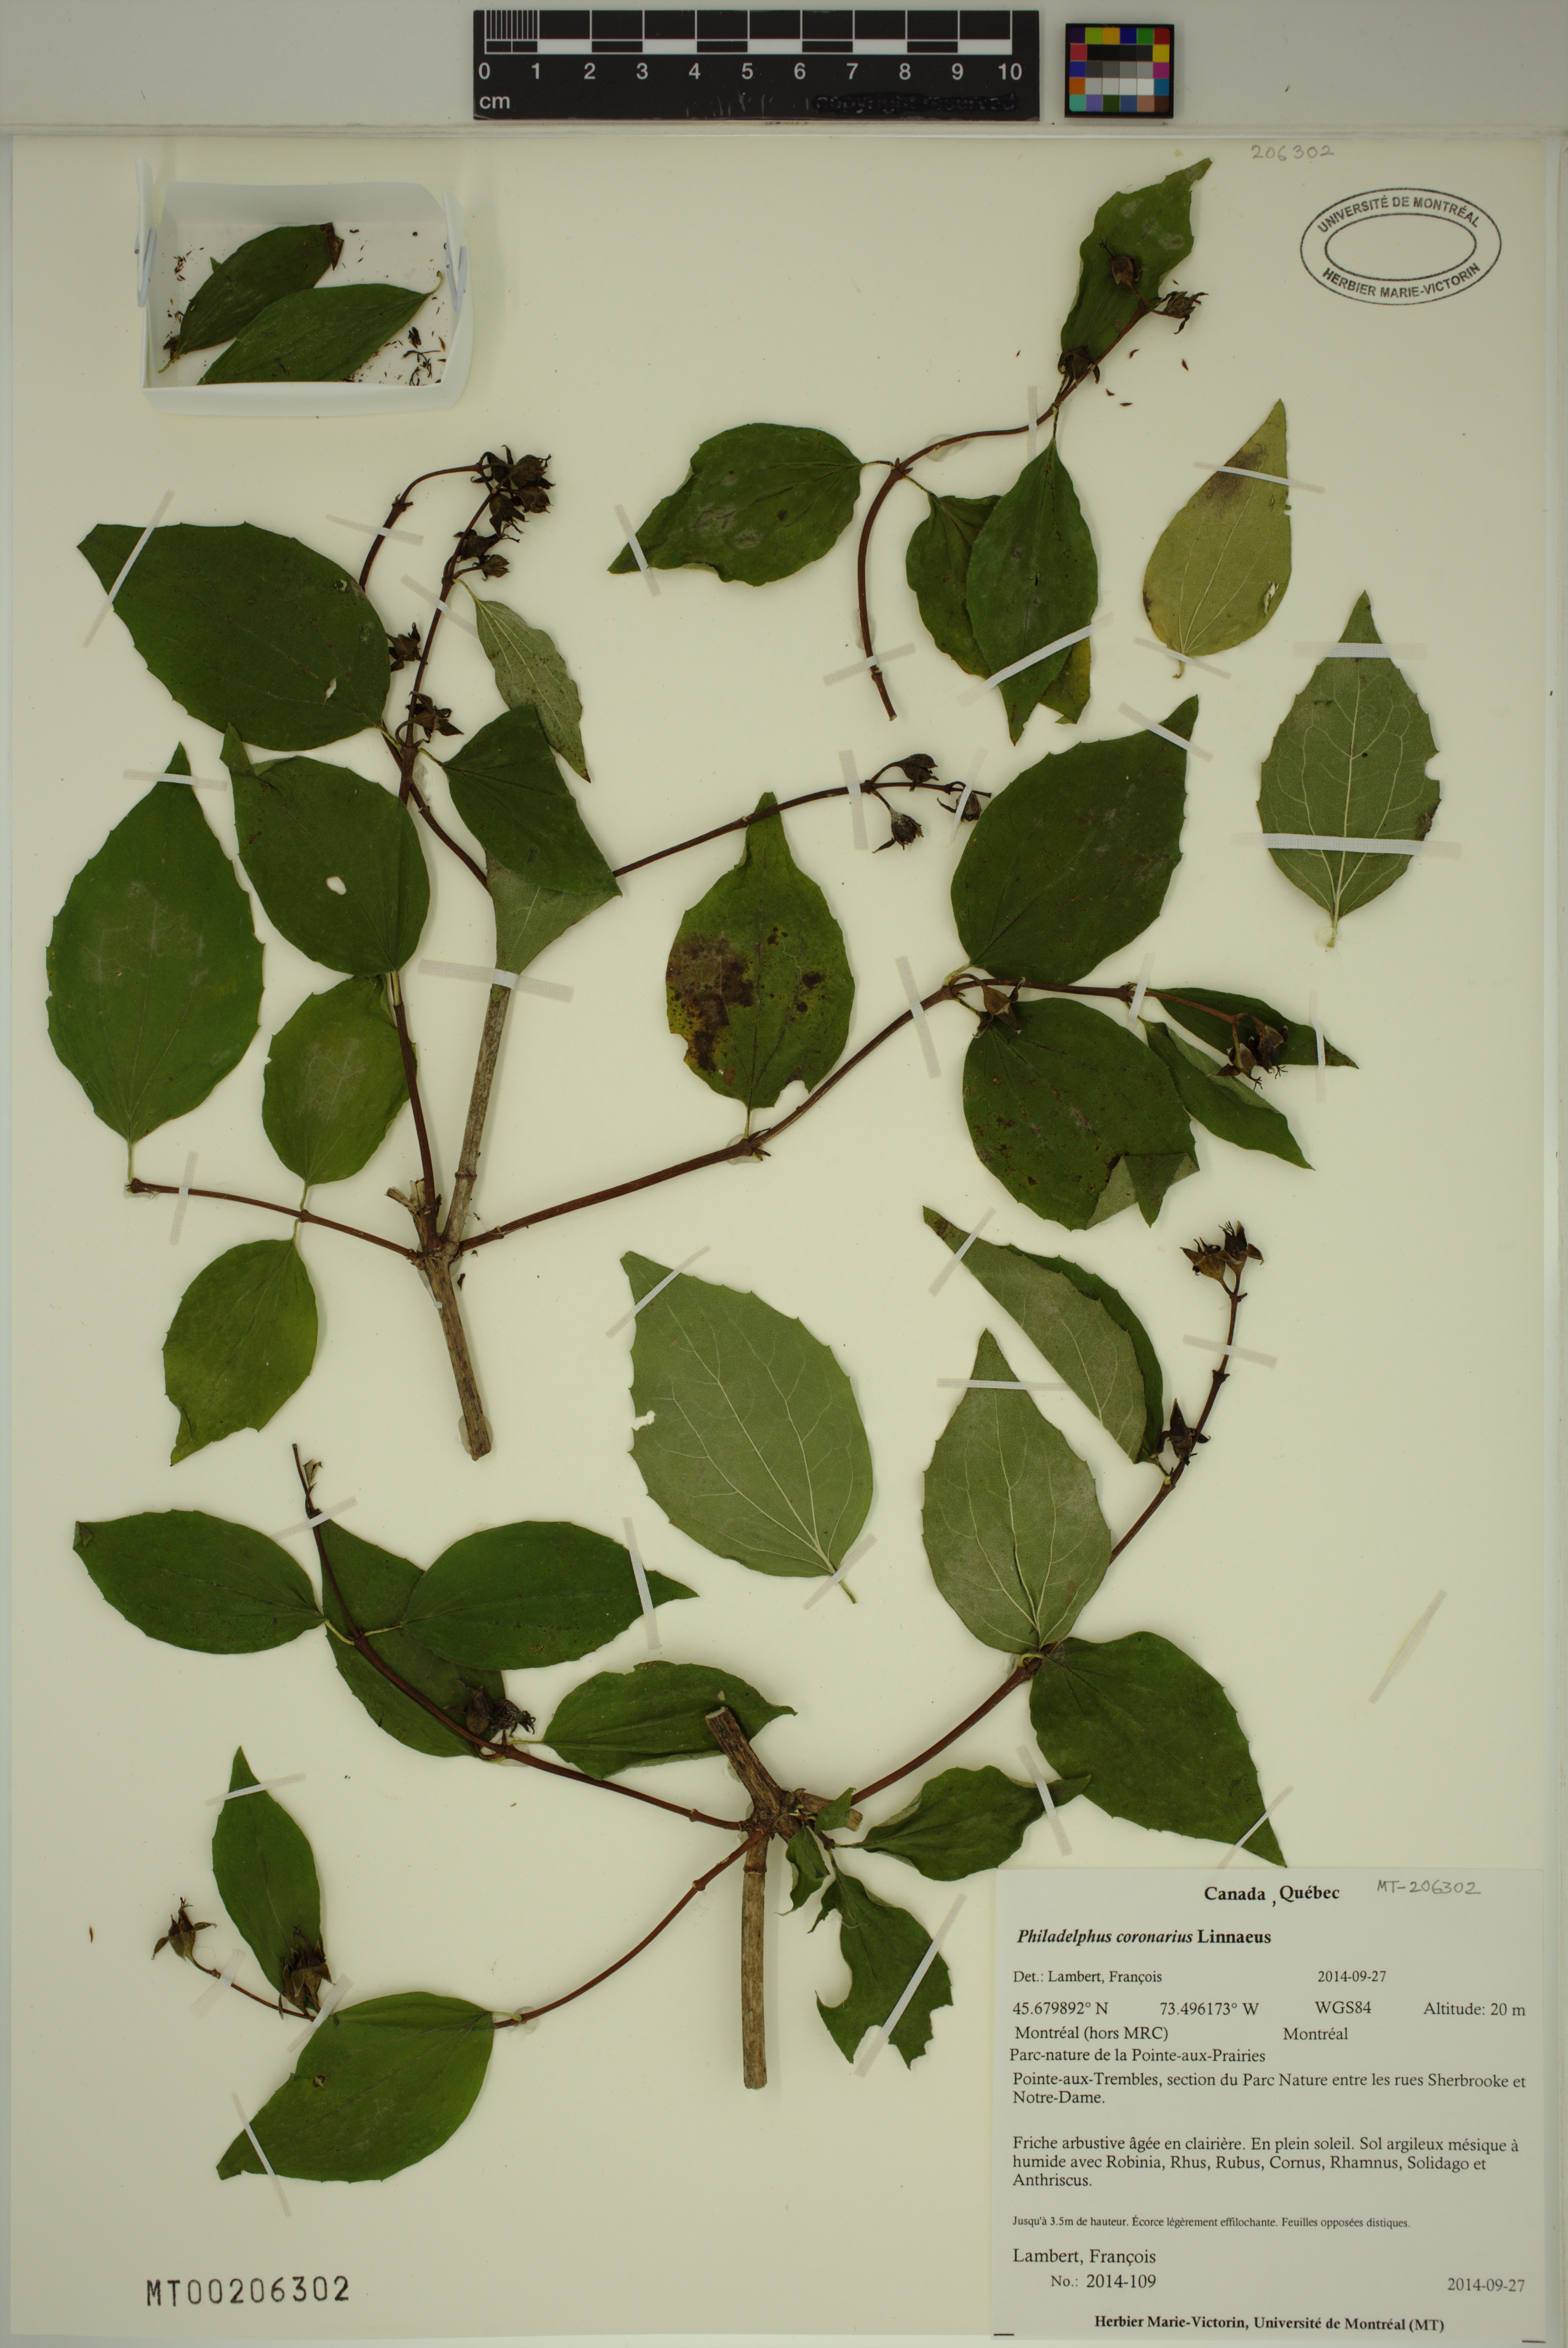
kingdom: Plantae
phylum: Tracheophyta
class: Magnoliopsida
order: Cornales
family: Hydrangeaceae
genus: Philadelphus
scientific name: Philadelphus coronarius
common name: Mock orange
